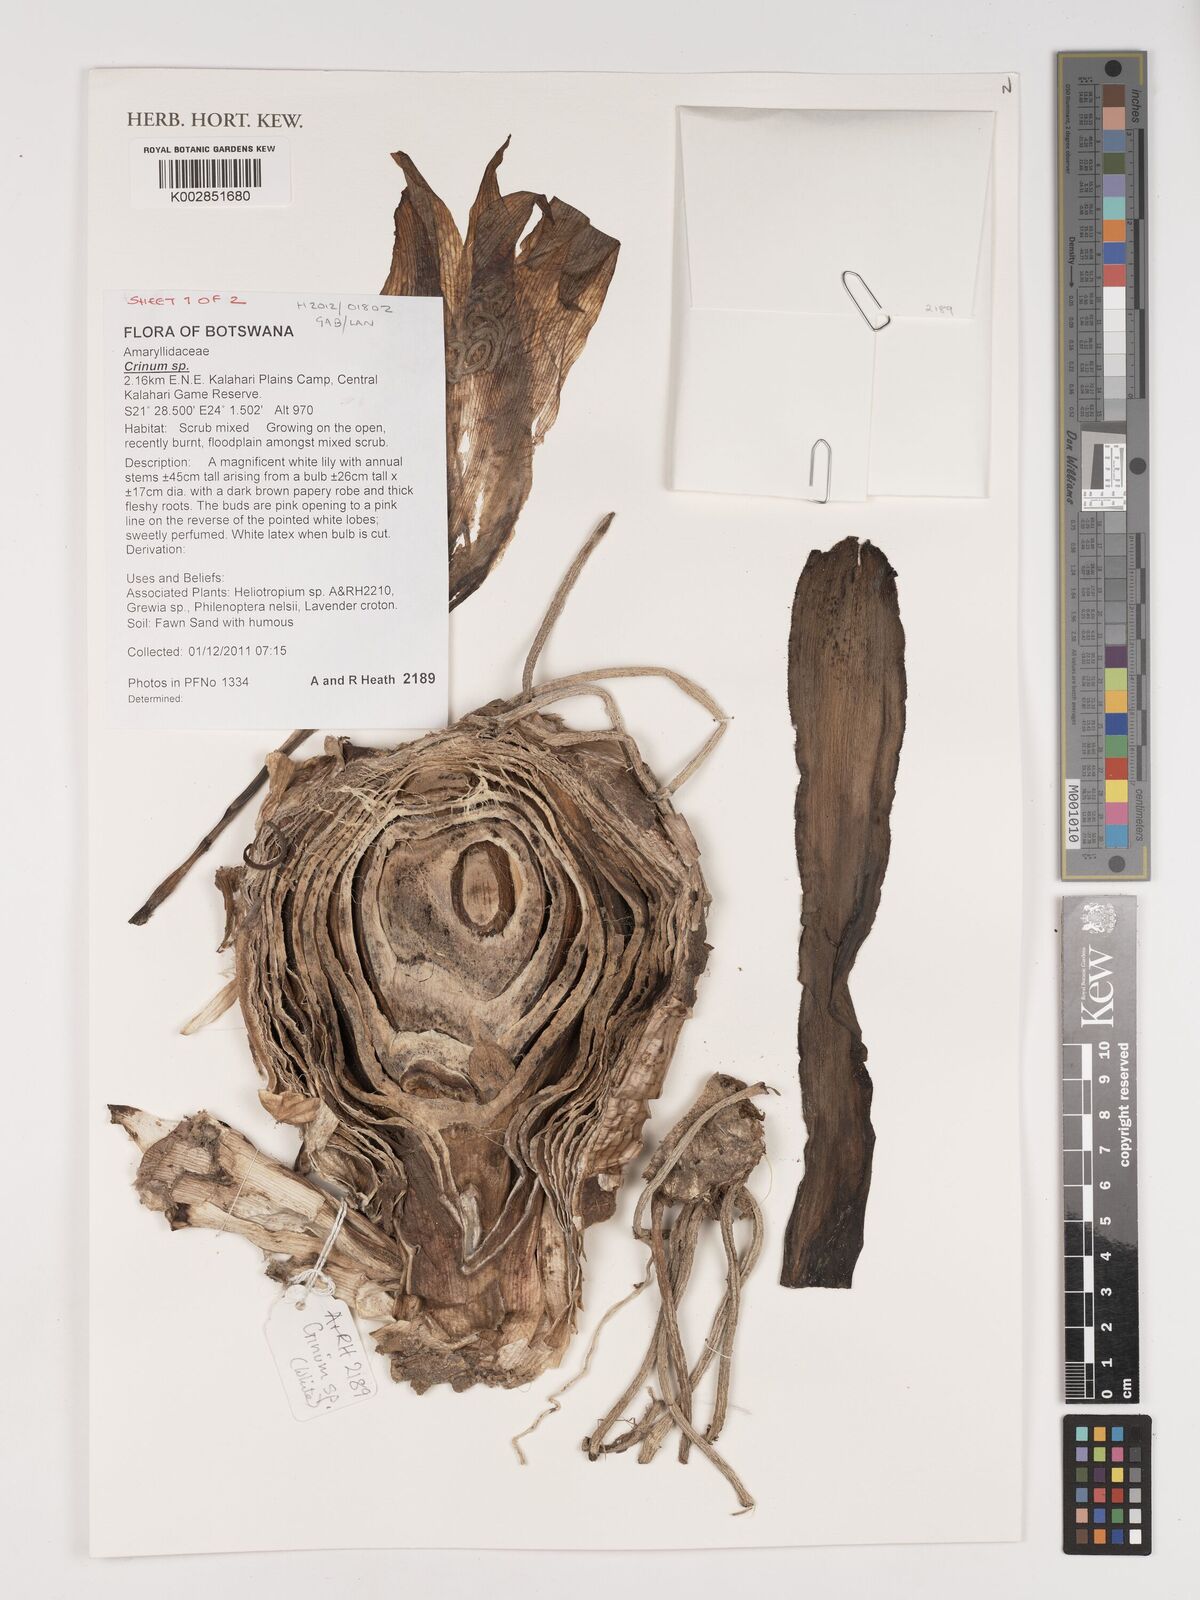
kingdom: Plantae
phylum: Tracheophyta
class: Liliopsida
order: Asparagales
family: Amaryllidaceae
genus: Crinum
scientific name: Crinum
